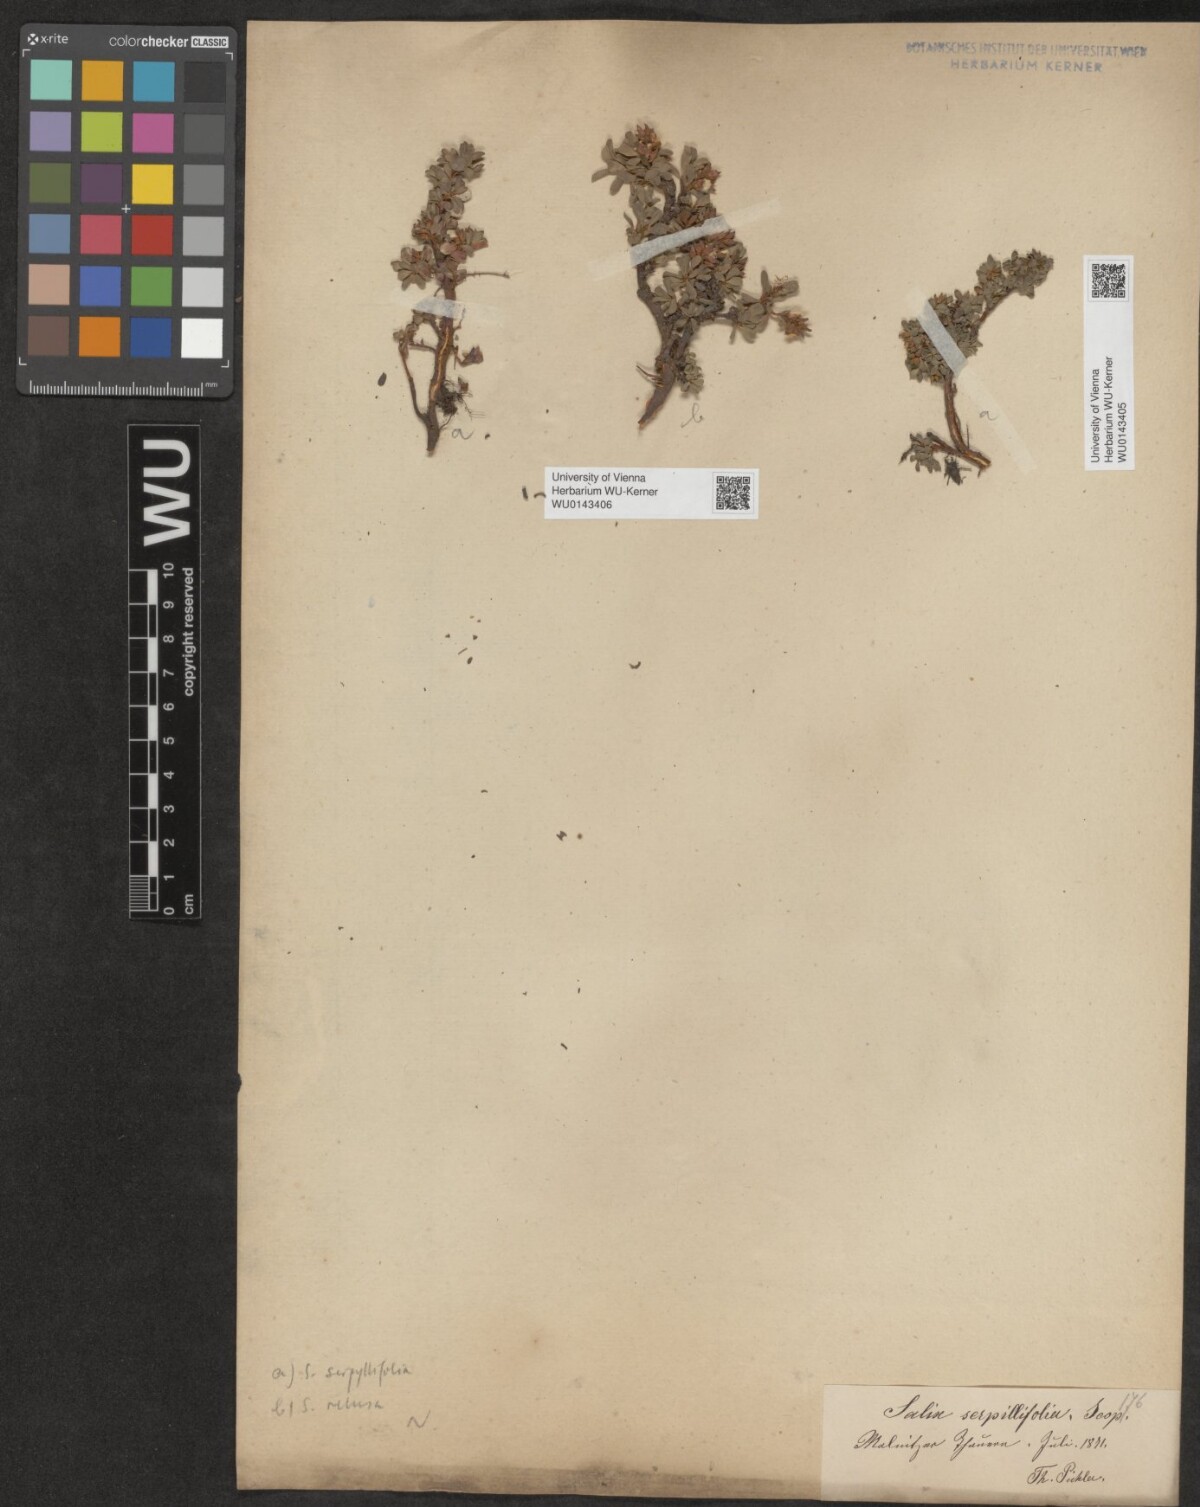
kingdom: Plantae
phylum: Tracheophyta
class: Magnoliopsida
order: Malpighiales
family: Salicaceae
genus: Salix
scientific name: Salix serpillifolia
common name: Thyme-leaf willow
